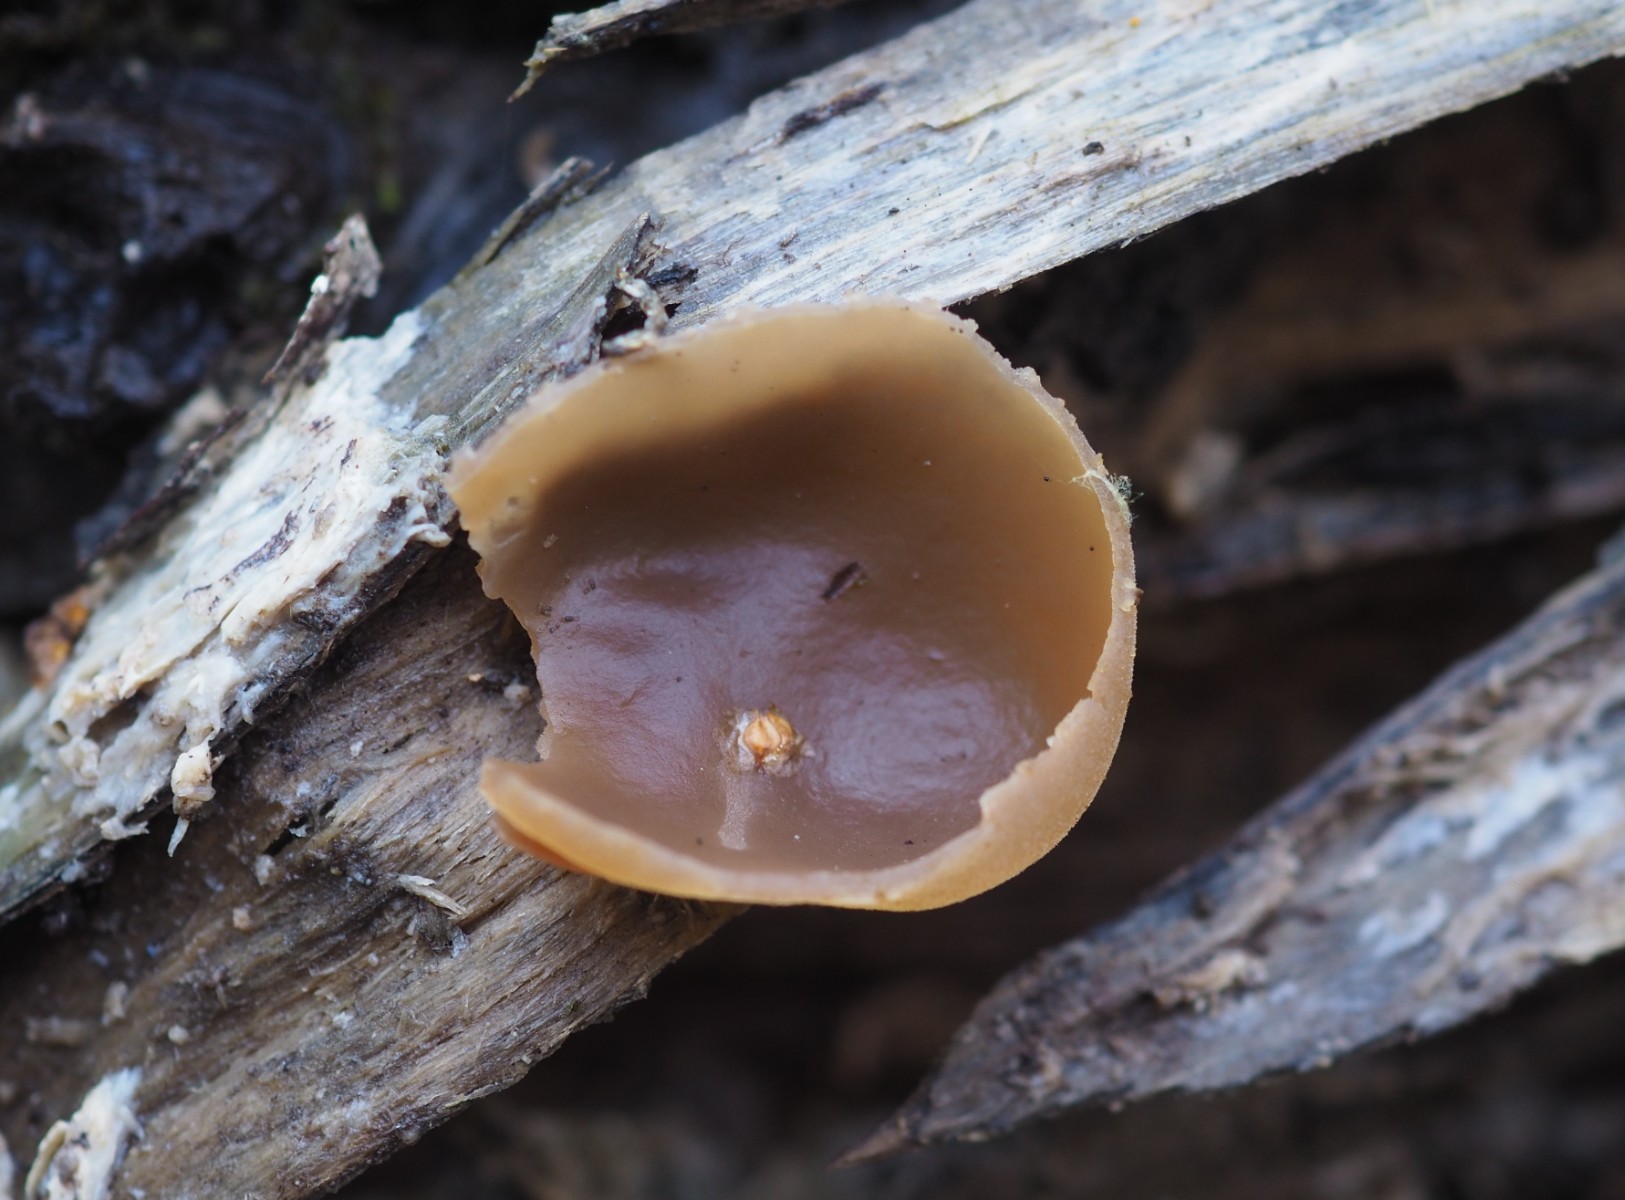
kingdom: Fungi
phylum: Ascomycota
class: Pezizomycetes
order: Pezizales
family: Pezizaceae
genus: Peziza
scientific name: Peziza varia
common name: Ved-bægersvamp
